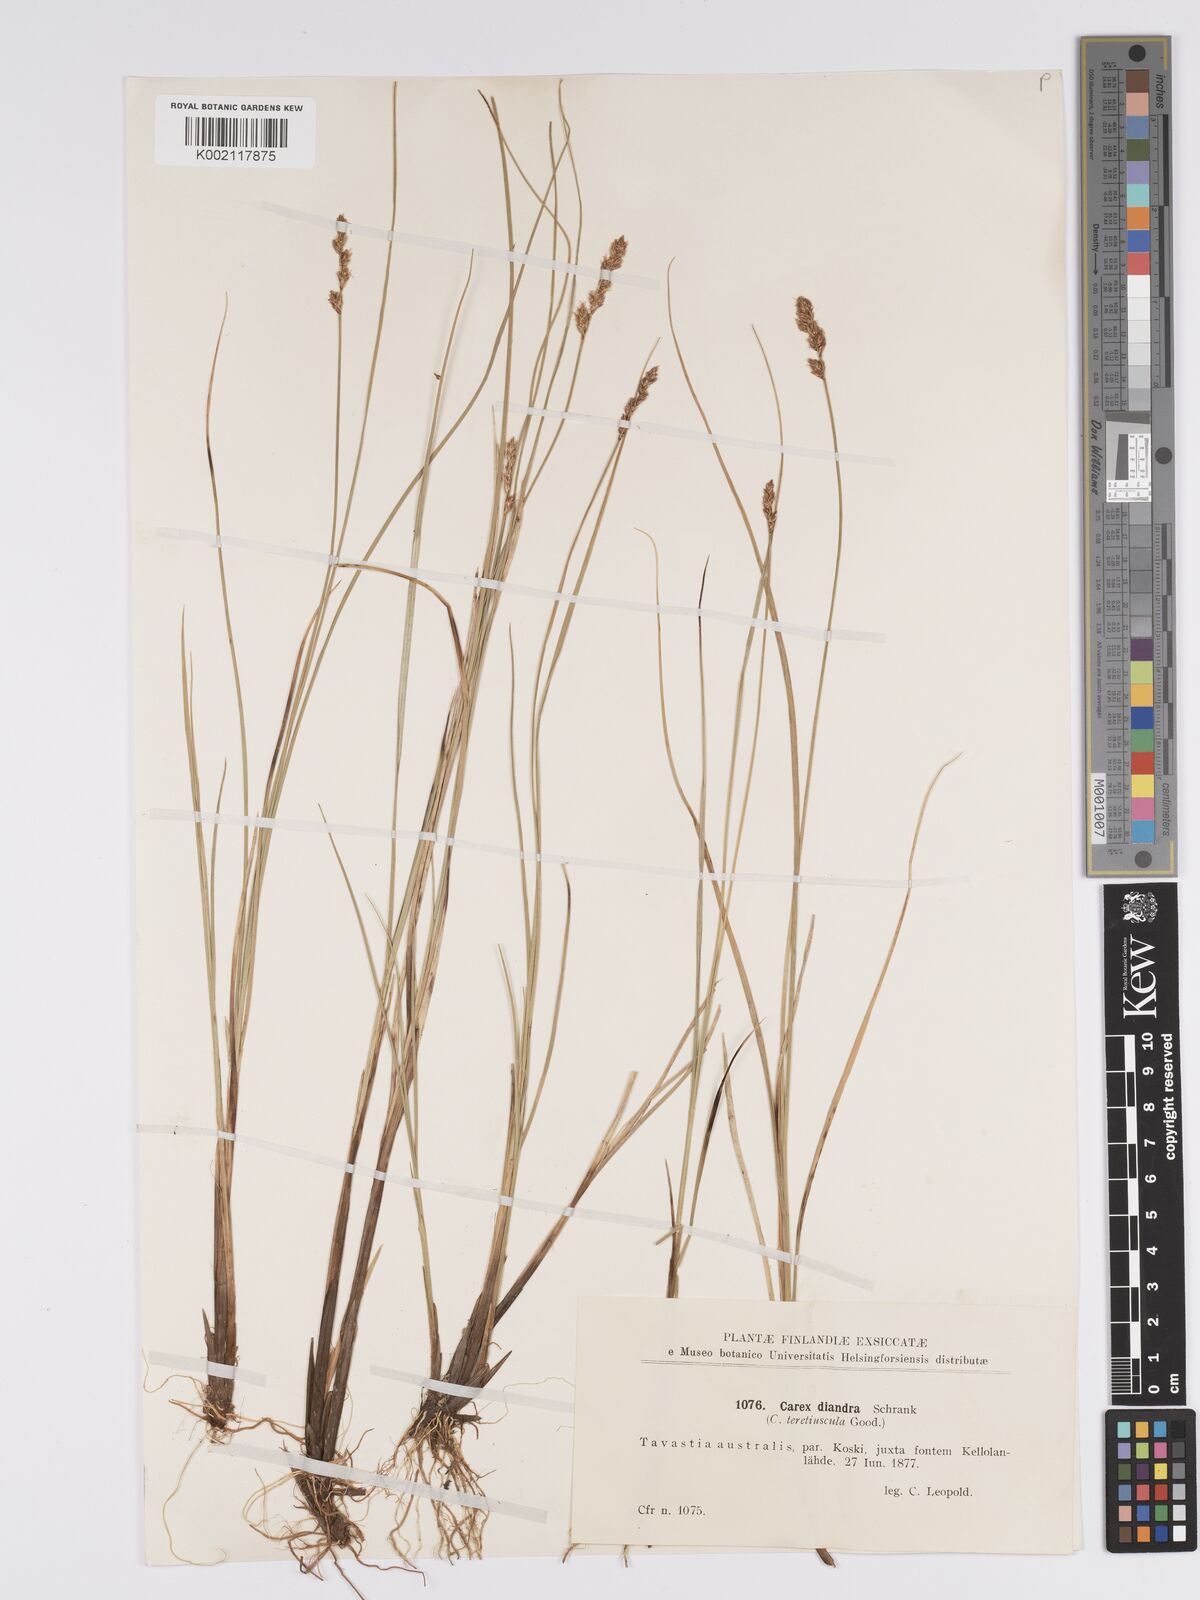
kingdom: Plantae
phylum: Tracheophyta
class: Liliopsida
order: Poales
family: Cyperaceae
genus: Carex
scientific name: Carex diandra
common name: Lesser tussock-sedge
